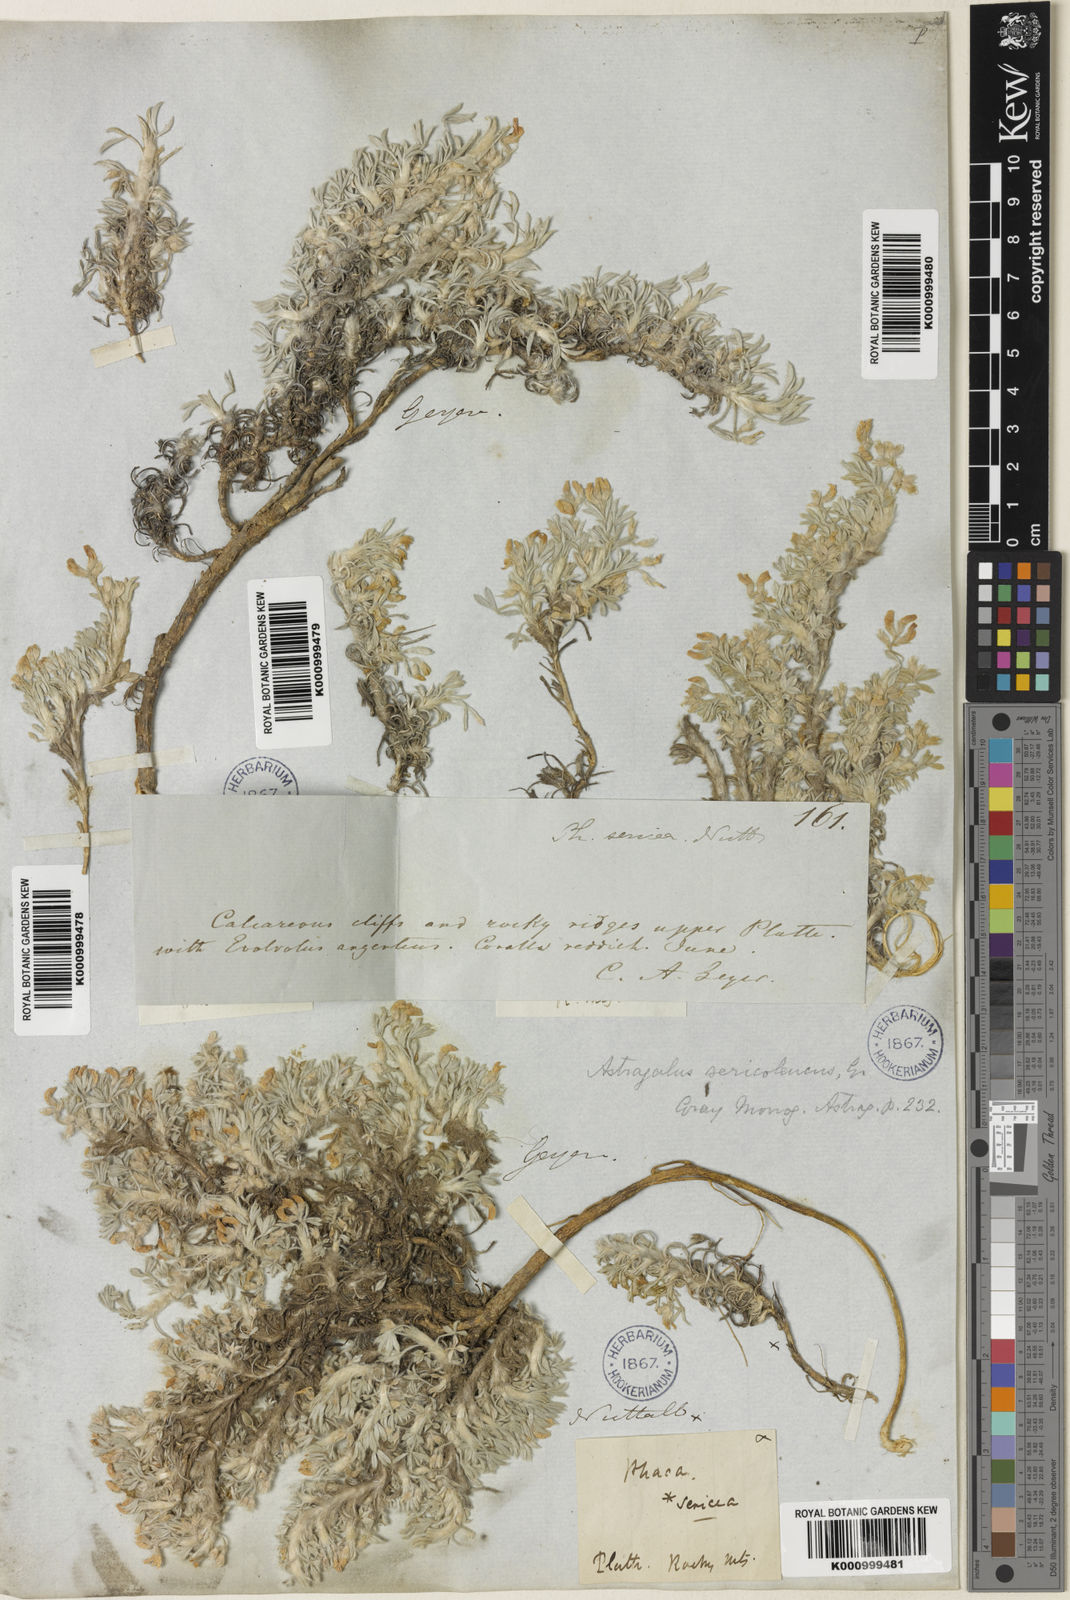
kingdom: Plantae
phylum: Tracheophyta
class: Magnoliopsida
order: Fabales
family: Fabaceae
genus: Astragalus
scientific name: Astragalus sericoleucus
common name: Silky orophaca
